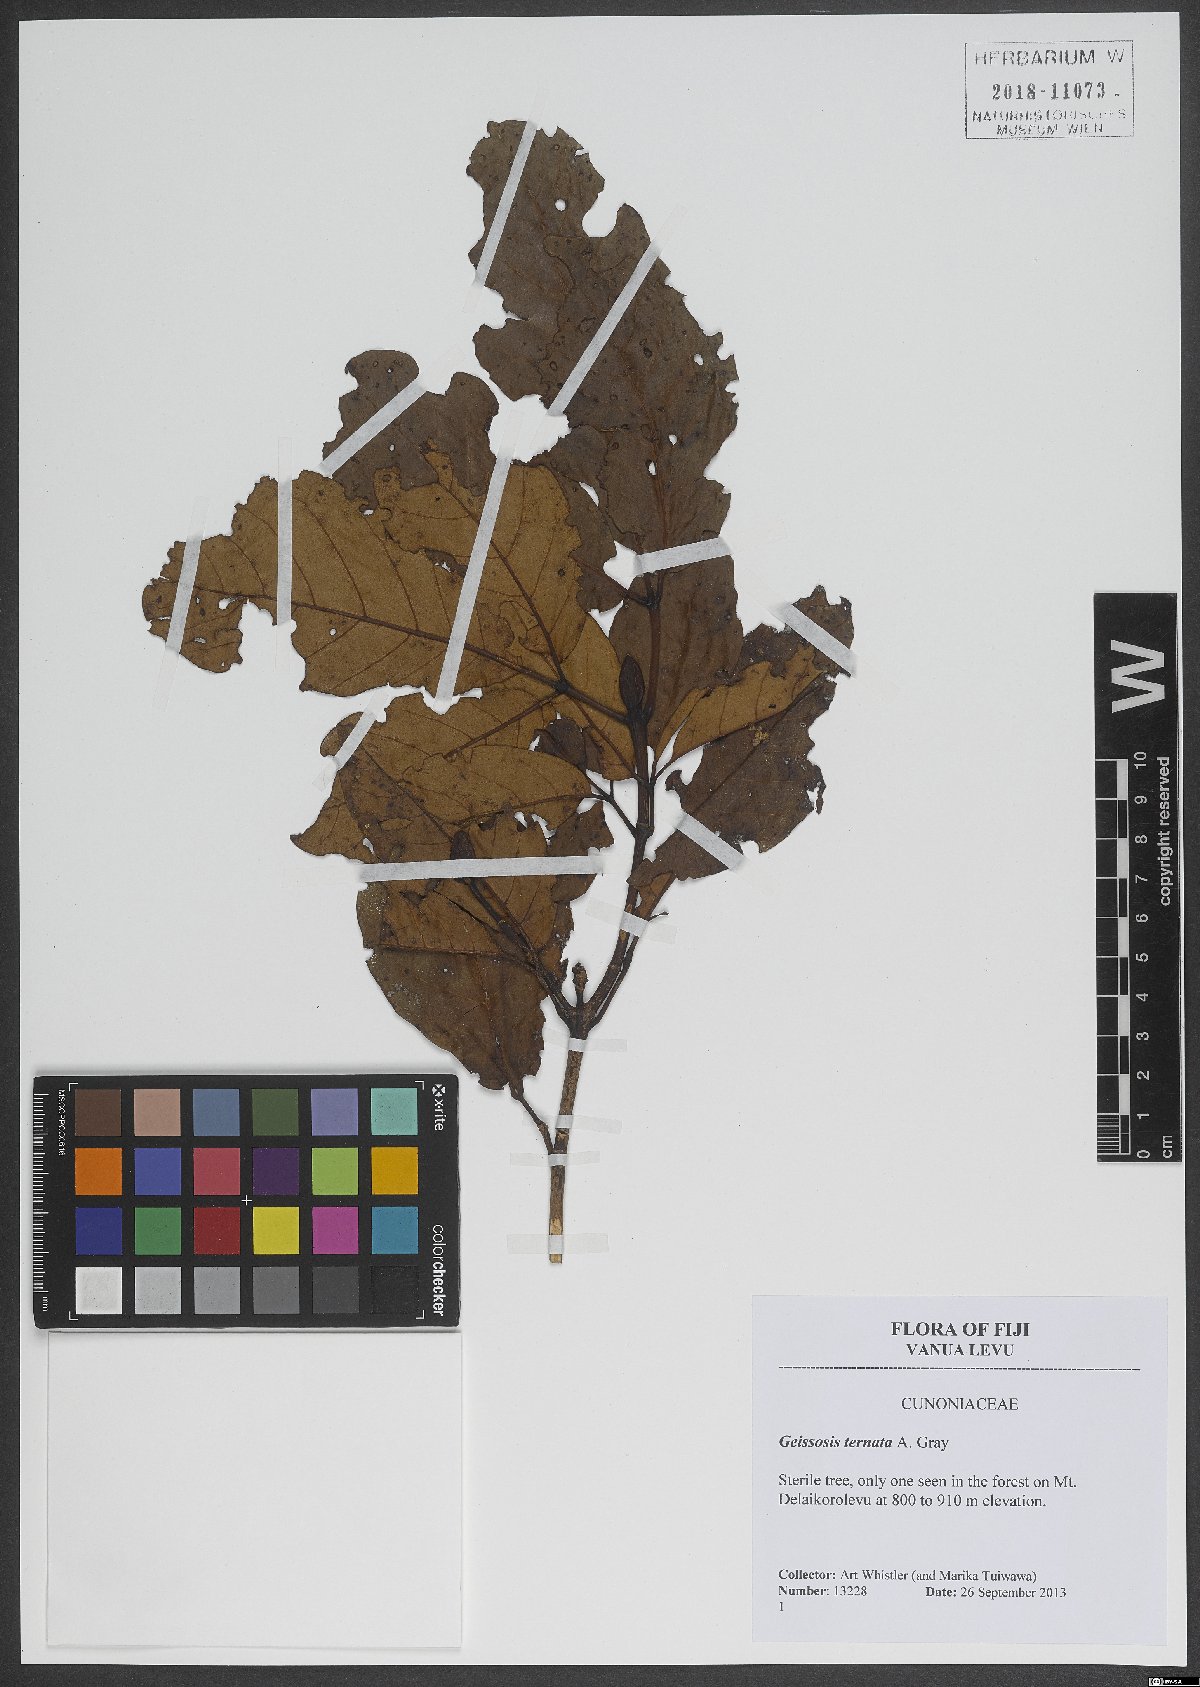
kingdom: Plantae
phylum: Tracheophyta
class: Magnoliopsida
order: Oxalidales
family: Cunoniaceae
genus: Geissois
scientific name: Geissois ternata
